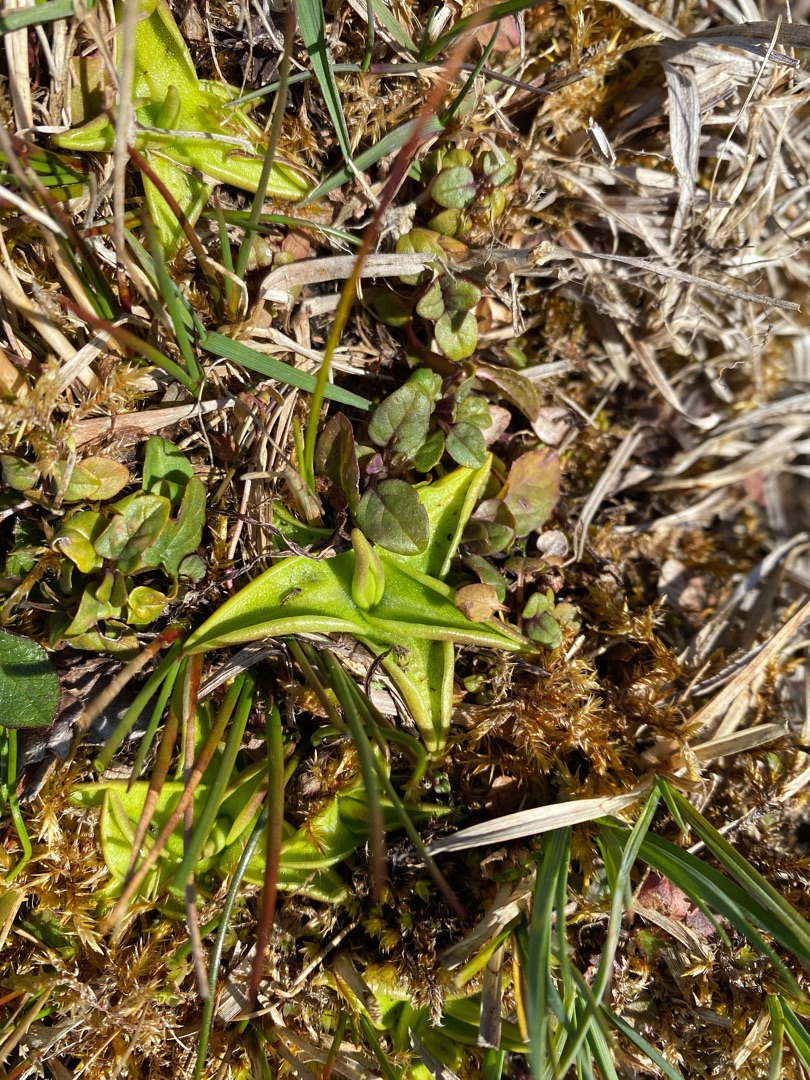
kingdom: Plantae
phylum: Tracheophyta
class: Magnoliopsida
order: Lamiales
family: Lentibulariaceae
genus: Pinguicula
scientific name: Pinguicula vulgaris
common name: Vibefedt
